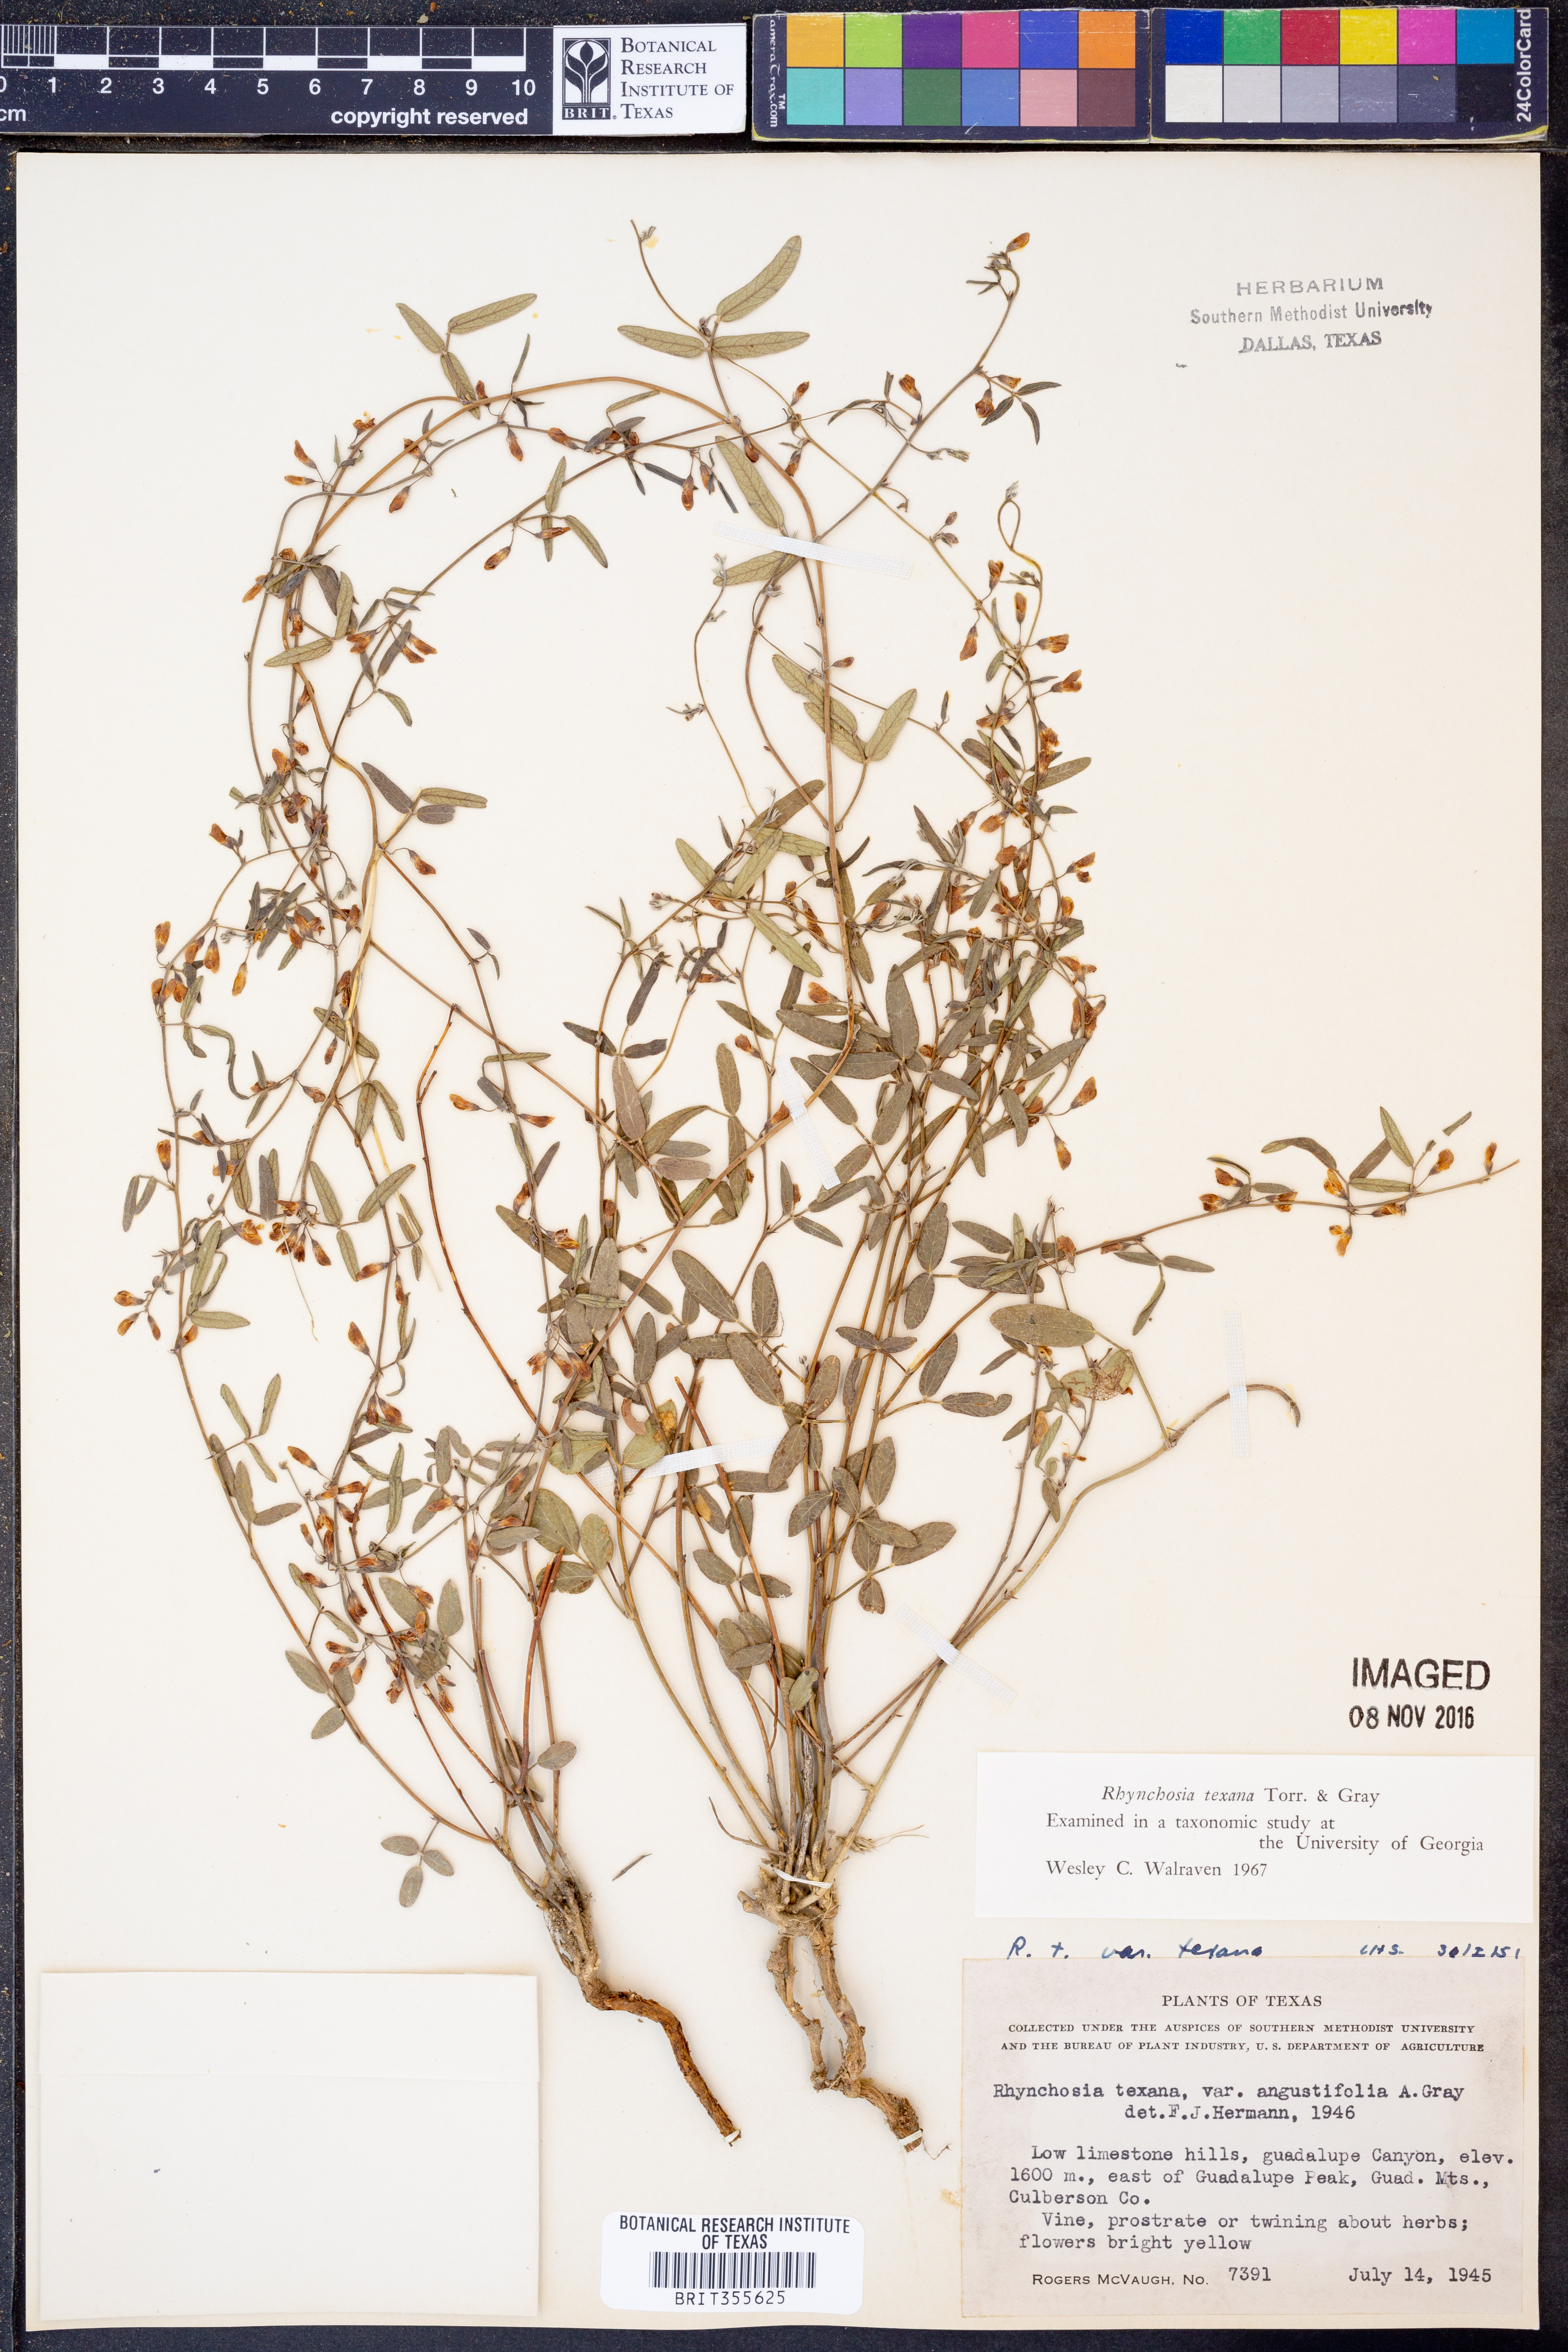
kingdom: Plantae
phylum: Tracheophyta
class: Magnoliopsida
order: Fabales
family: Fabaceae
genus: Rhynchosia
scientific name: Rhynchosia senna
